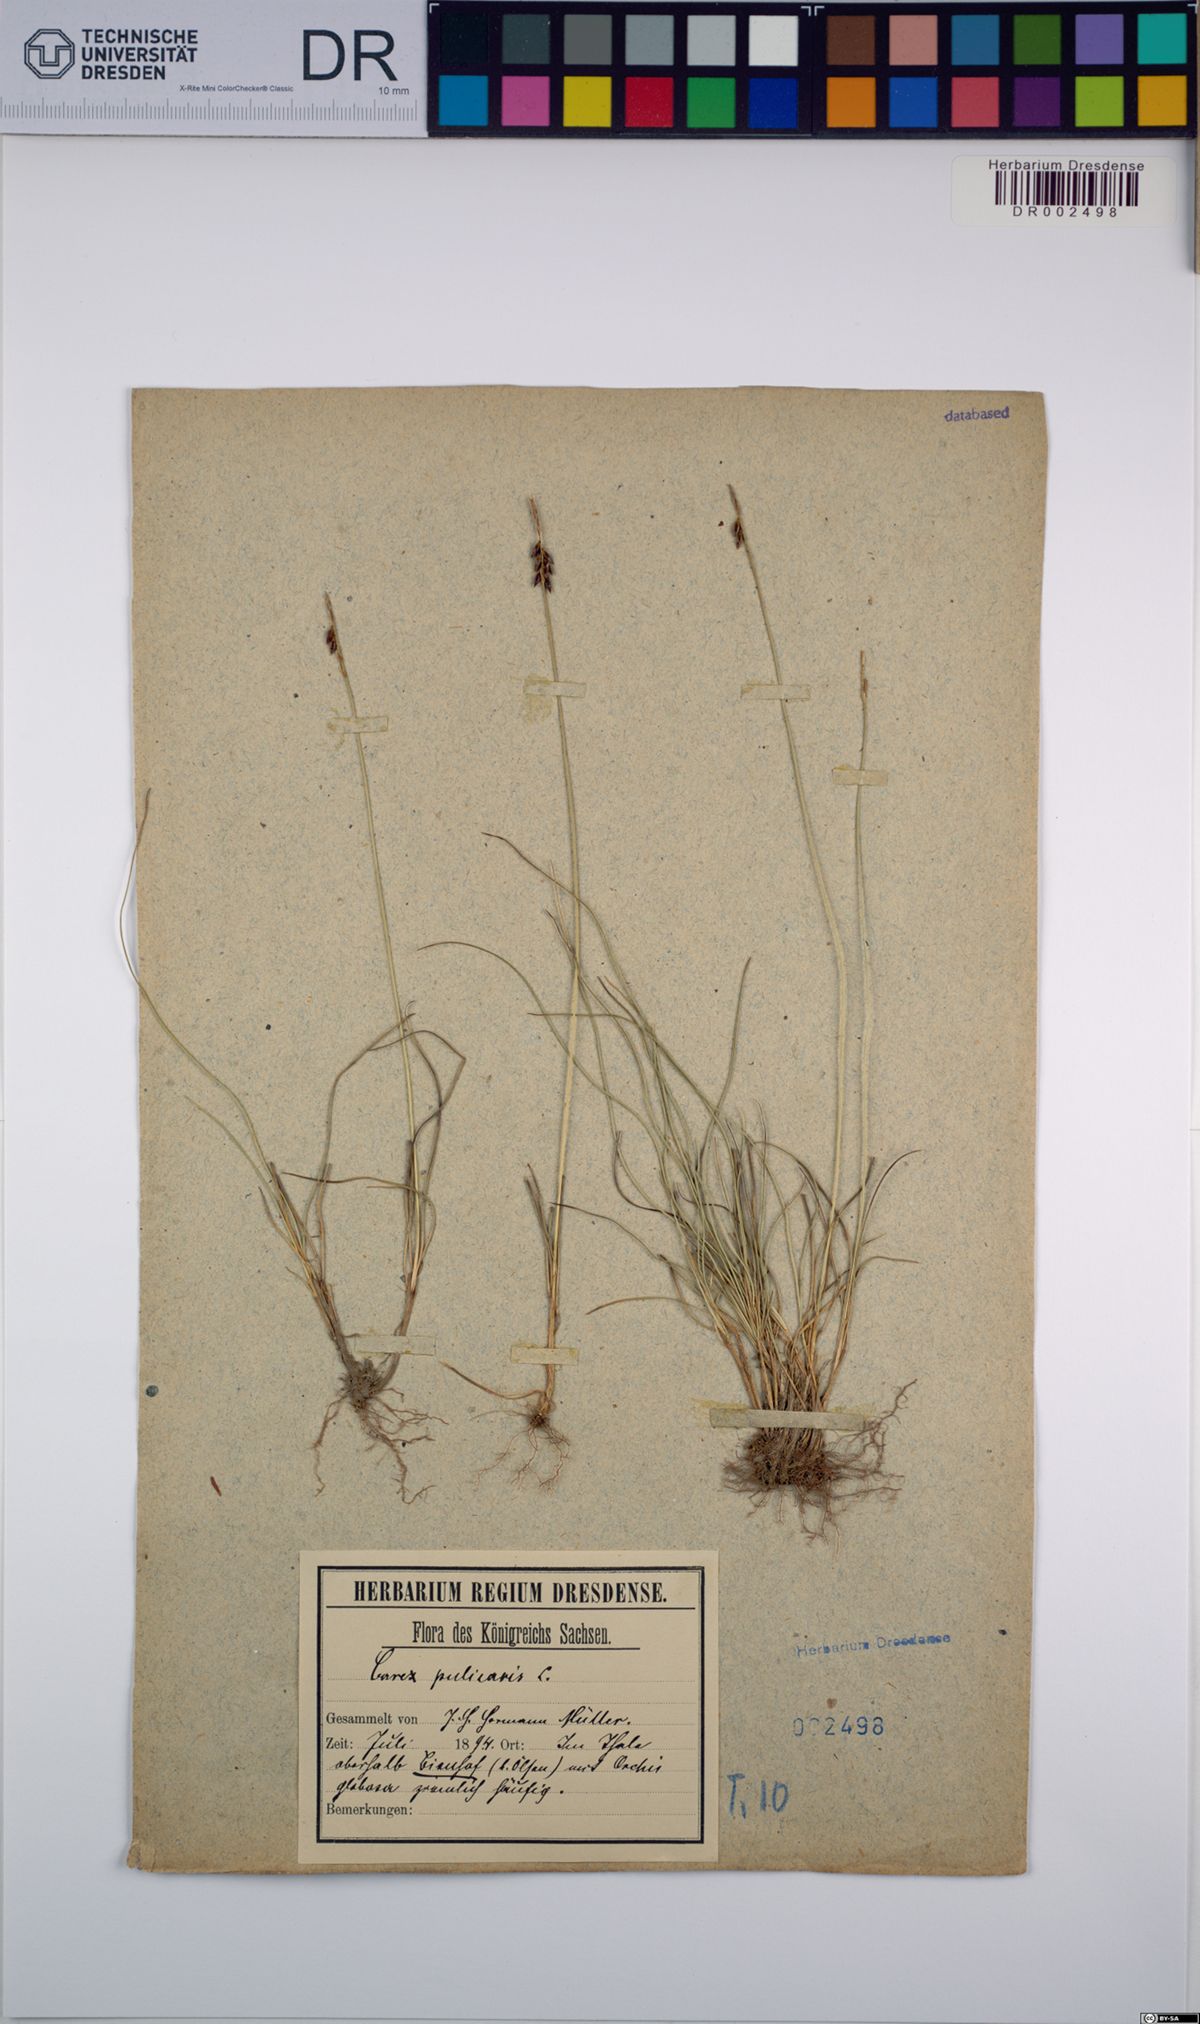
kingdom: Plantae
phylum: Tracheophyta
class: Liliopsida
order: Poales
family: Cyperaceae
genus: Carex
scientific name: Carex pulicaris
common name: Flea sedge
